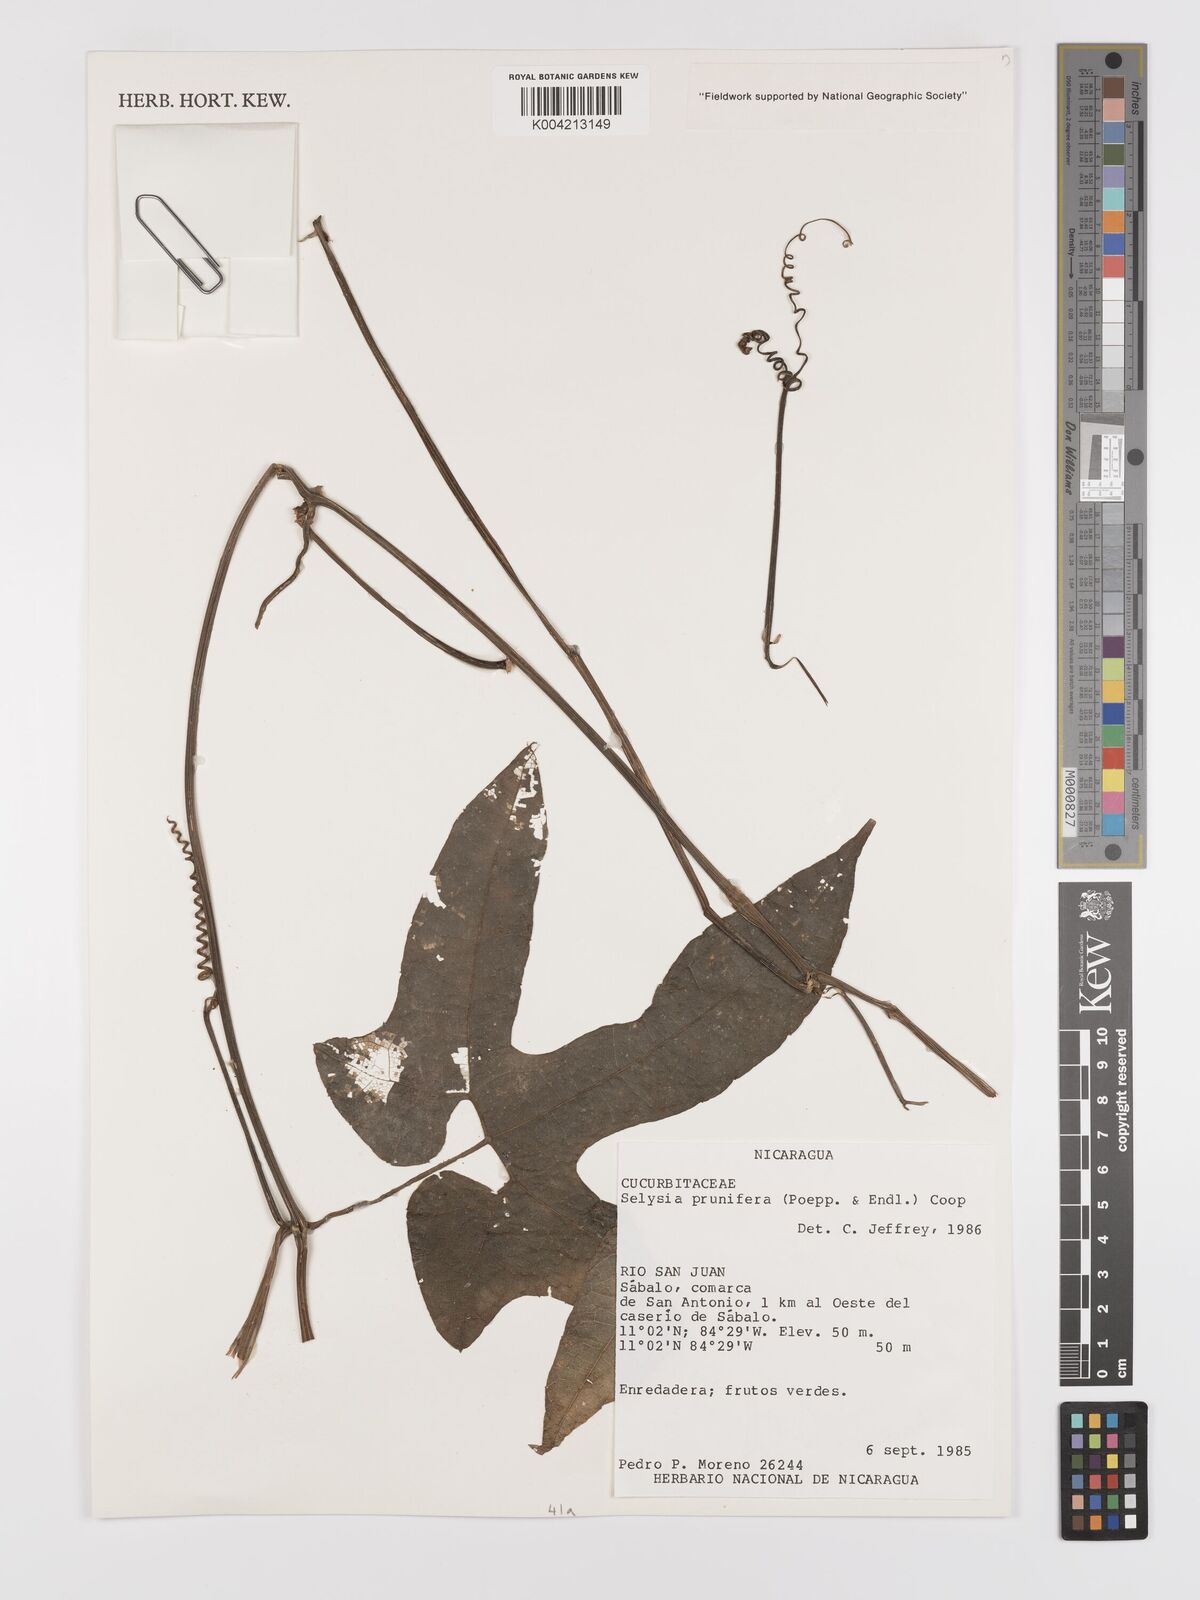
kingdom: Plantae
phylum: Tracheophyta
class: Magnoliopsida
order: Cucurbitales
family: Cucurbitaceae
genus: Cayaponia
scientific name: Cayaponia prunifera
